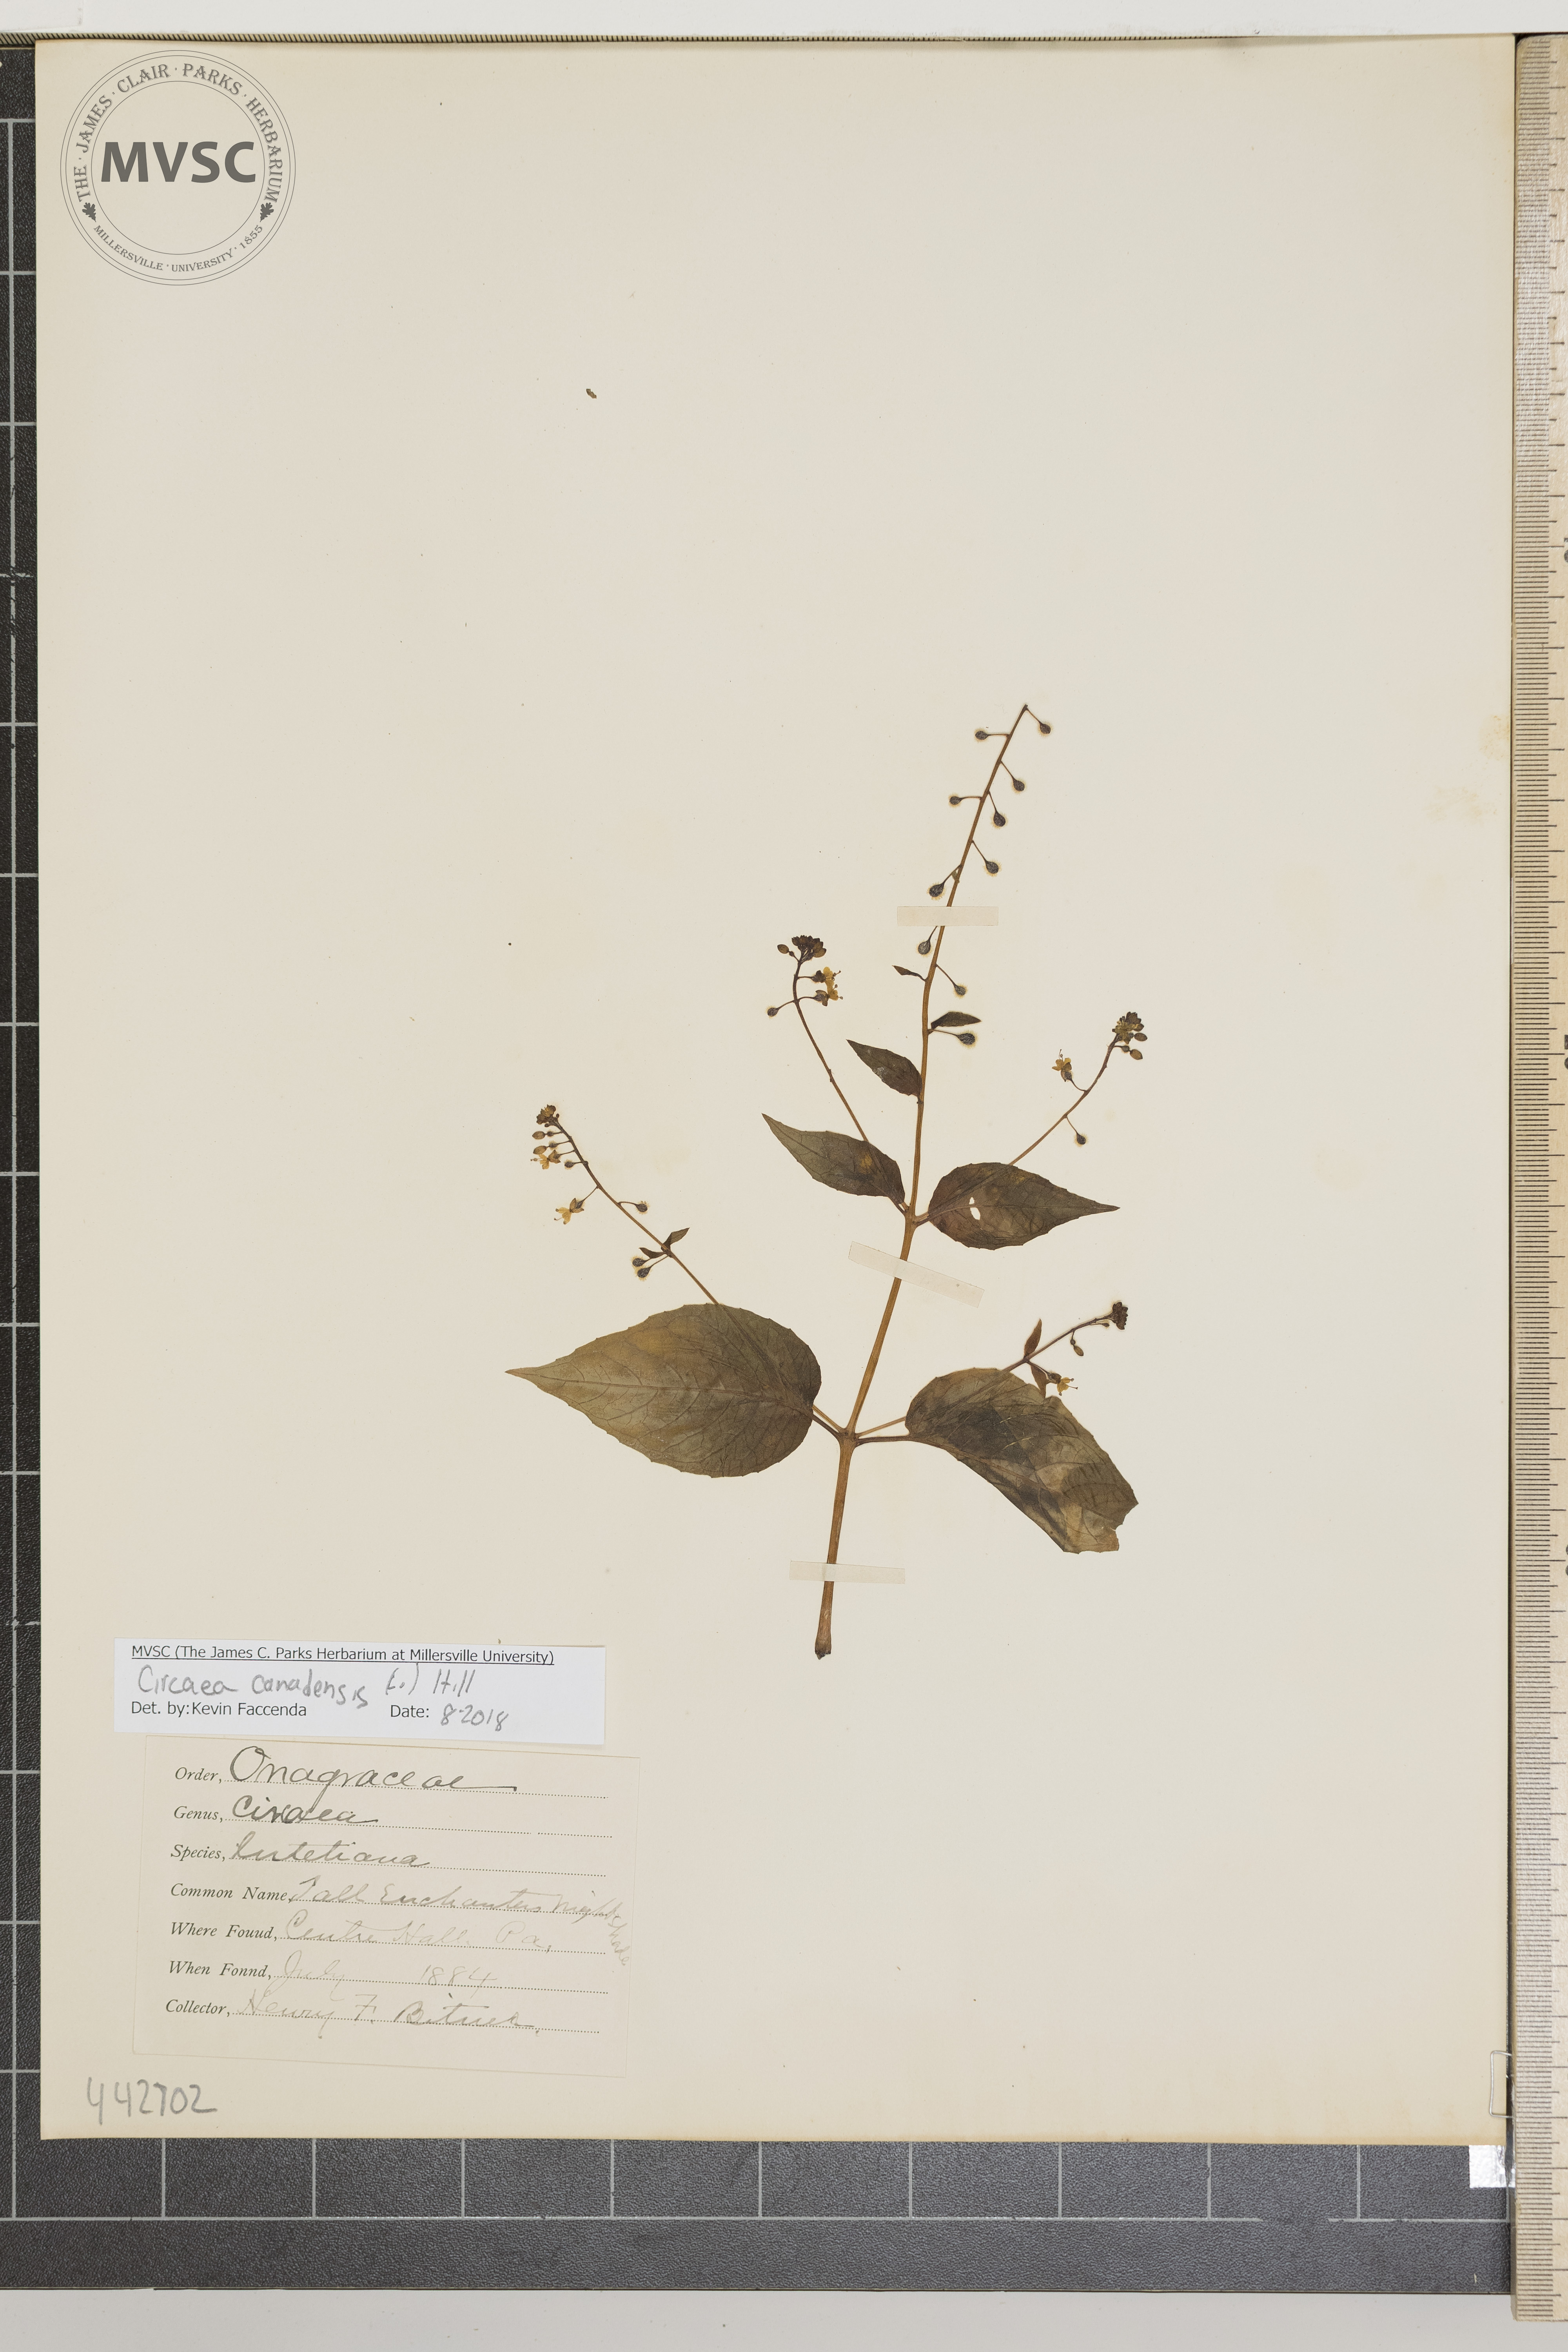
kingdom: Plantae
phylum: Tracheophyta
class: Magnoliopsida
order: Myrtales
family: Onagraceae
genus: Circaea
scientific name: Circaea canadensis
